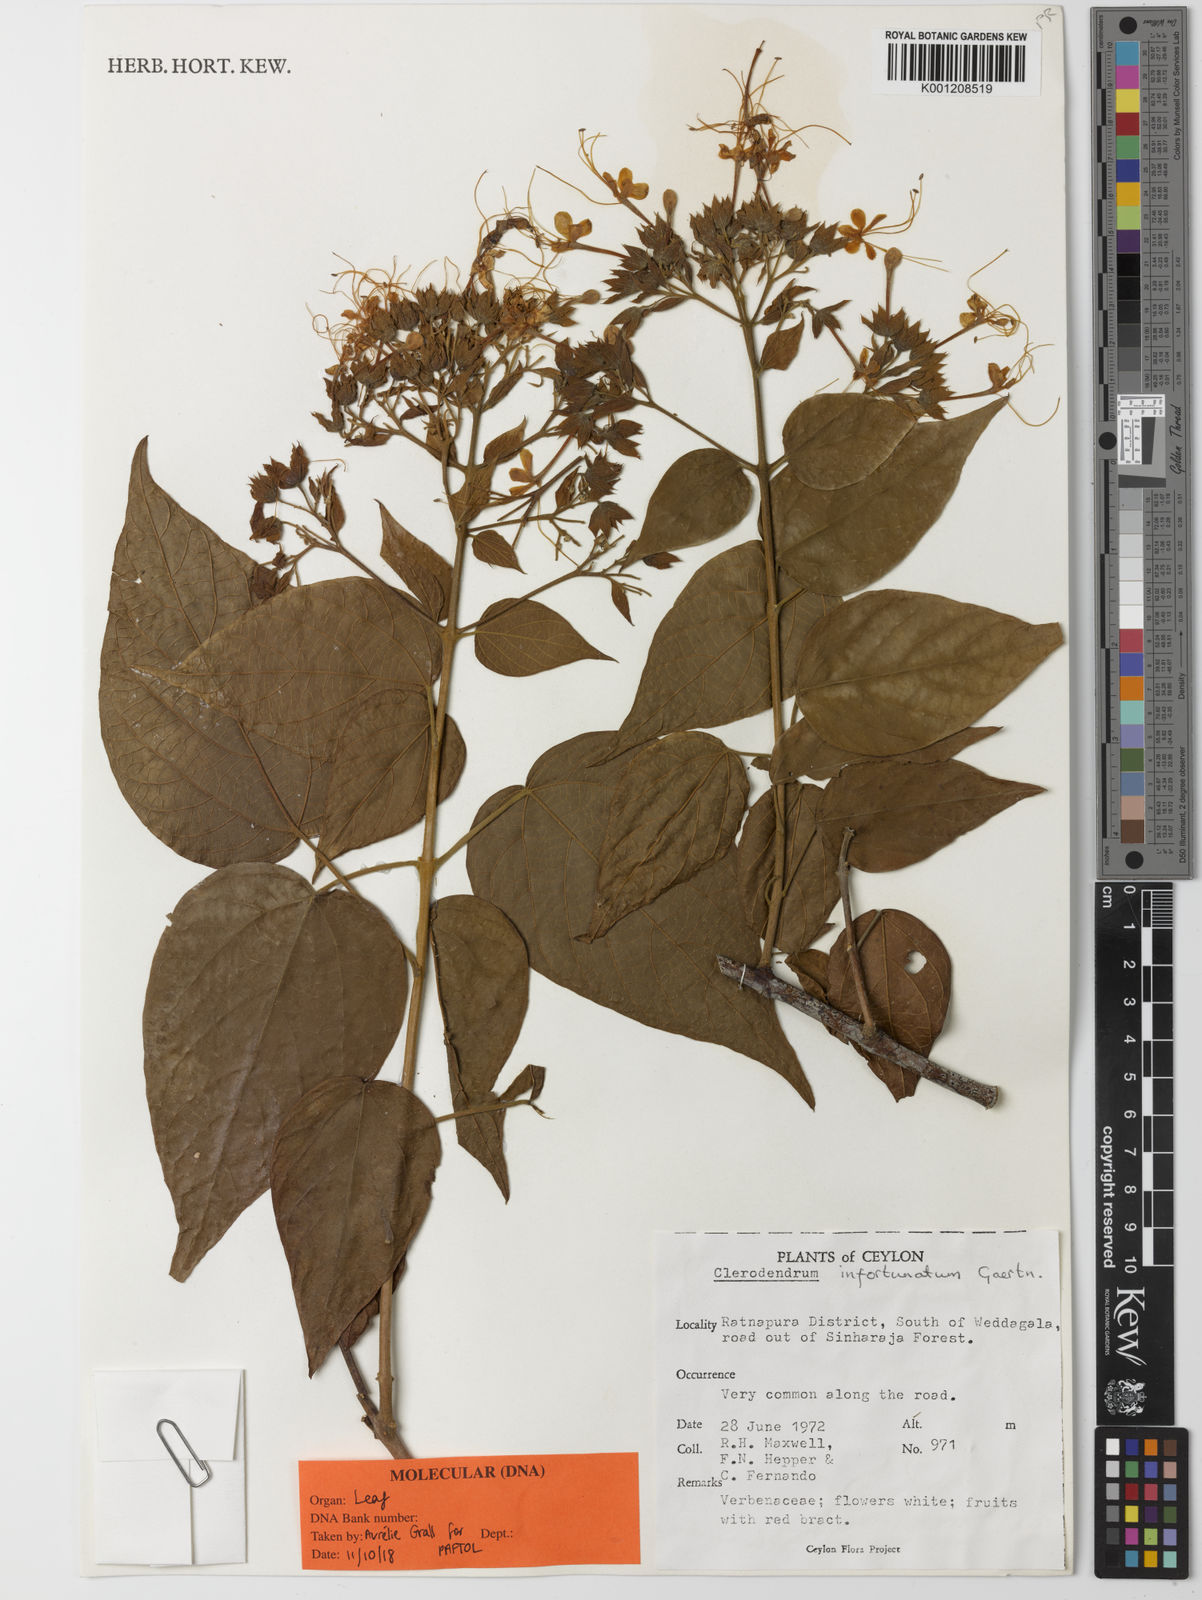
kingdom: Plantae
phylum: Tracheophyta
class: Magnoliopsida
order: Lamiales
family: Lamiaceae
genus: Clerodendrum
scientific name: Clerodendrum infortunatum
